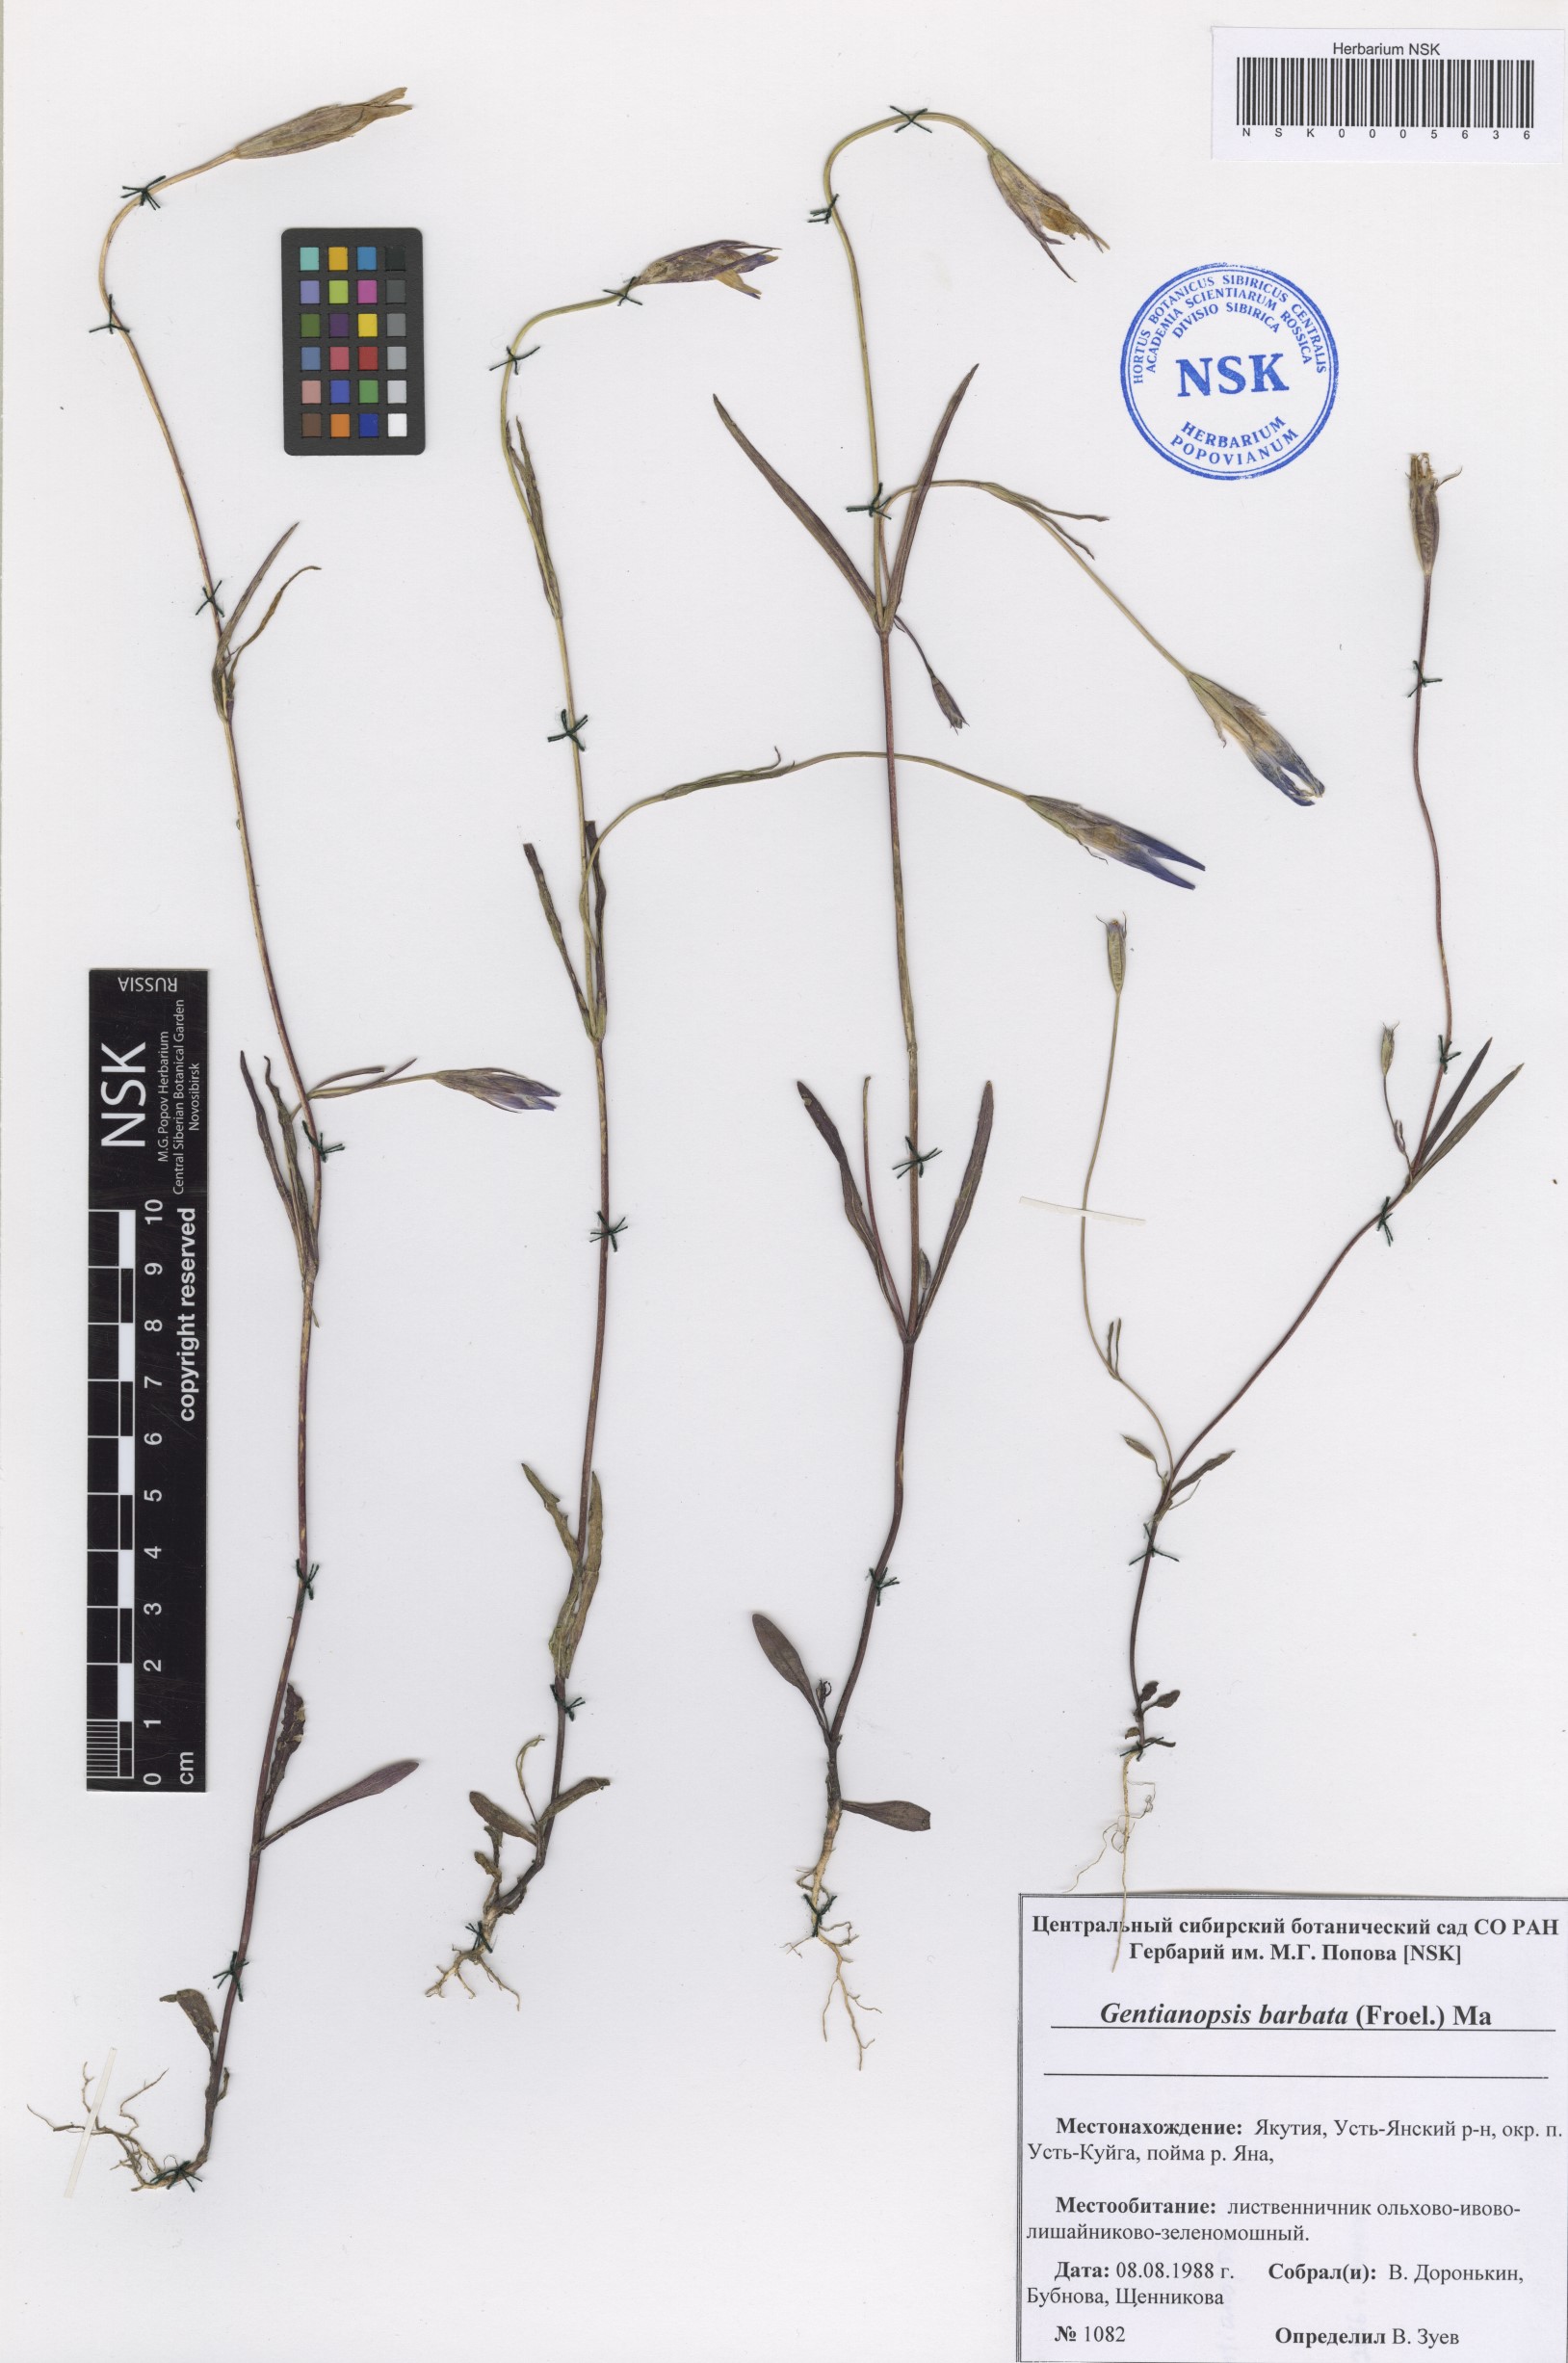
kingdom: Plantae
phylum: Tracheophyta
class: Magnoliopsida
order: Gentianales
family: Gentianaceae
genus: Gentianopsis
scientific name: Gentianopsis barbata
